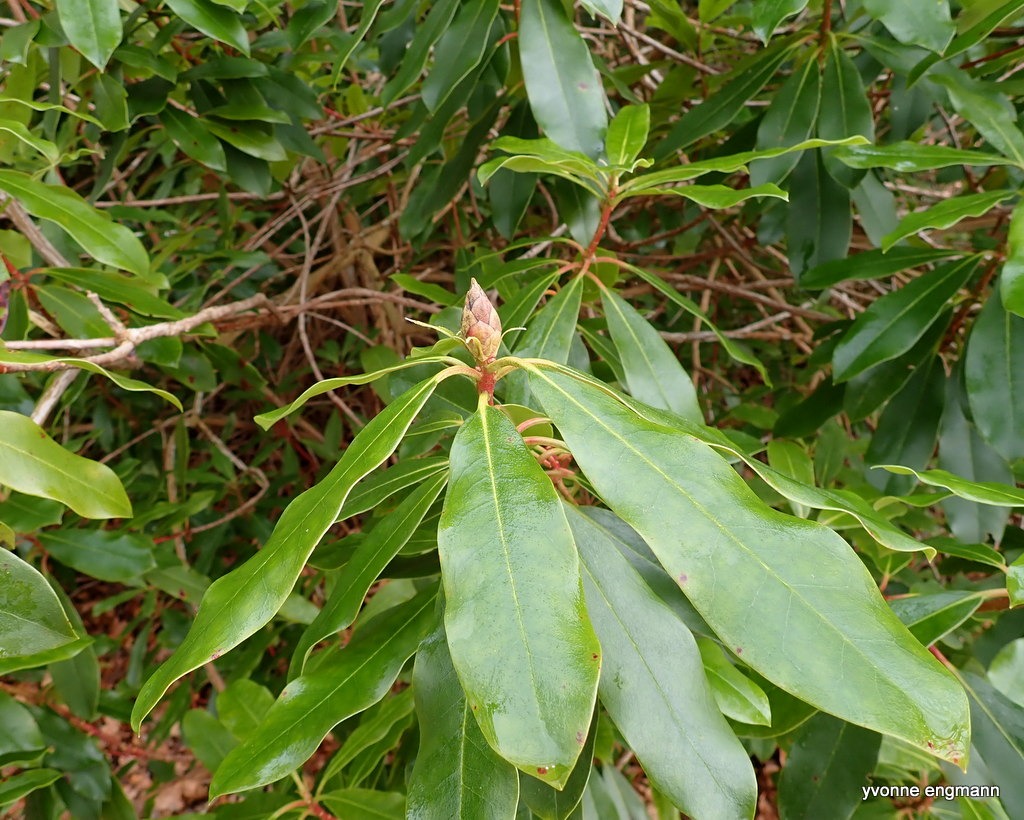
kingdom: Plantae
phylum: Tracheophyta
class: Magnoliopsida
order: Ericales
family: Ericaceae
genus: Rhododendron
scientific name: Rhododendron
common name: Rhododendronslægten
